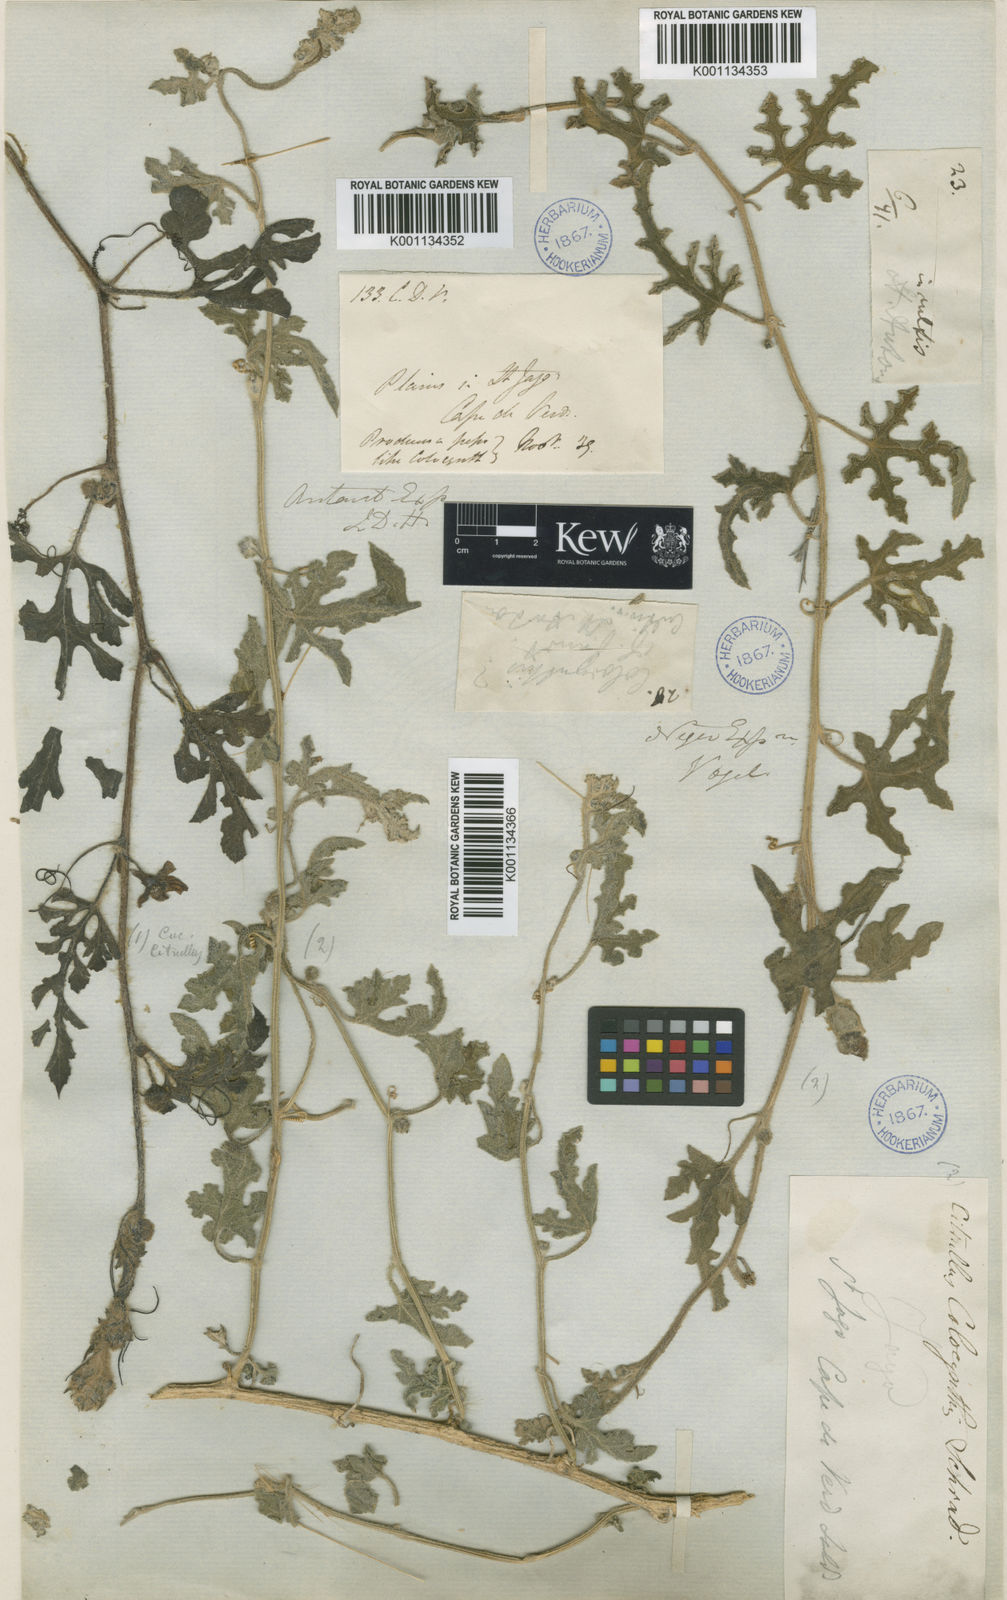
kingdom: Plantae
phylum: Tracheophyta
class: Magnoliopsida
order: Cucurbitales
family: Cucurbitaceae
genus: Citrullus
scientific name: Citrullus colocynthis
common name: Colocynth
